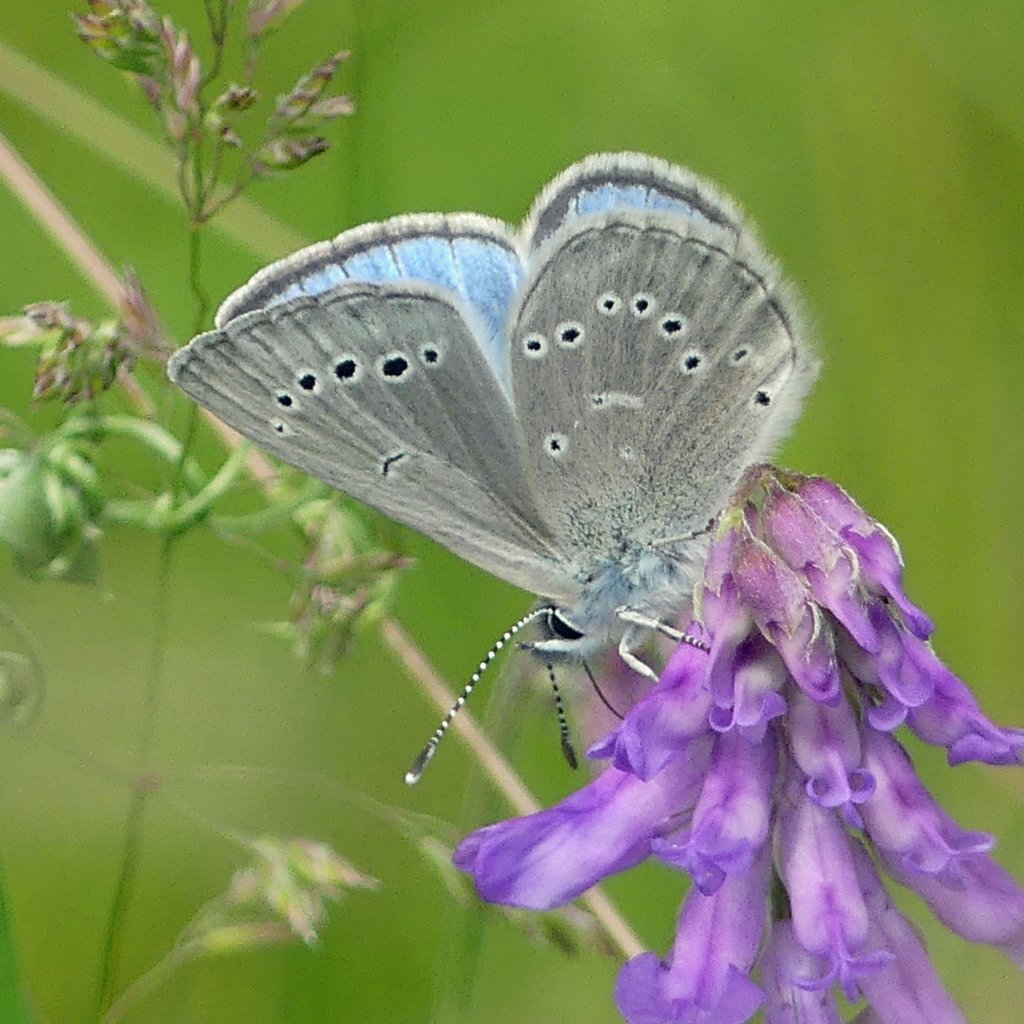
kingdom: Animalia
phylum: Arthropoda
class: Insecta
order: Lepidoptera
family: Lycaenidae
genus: Glaucopsyche
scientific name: Glaucopsyche lygdamus
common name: Silvery Blue
